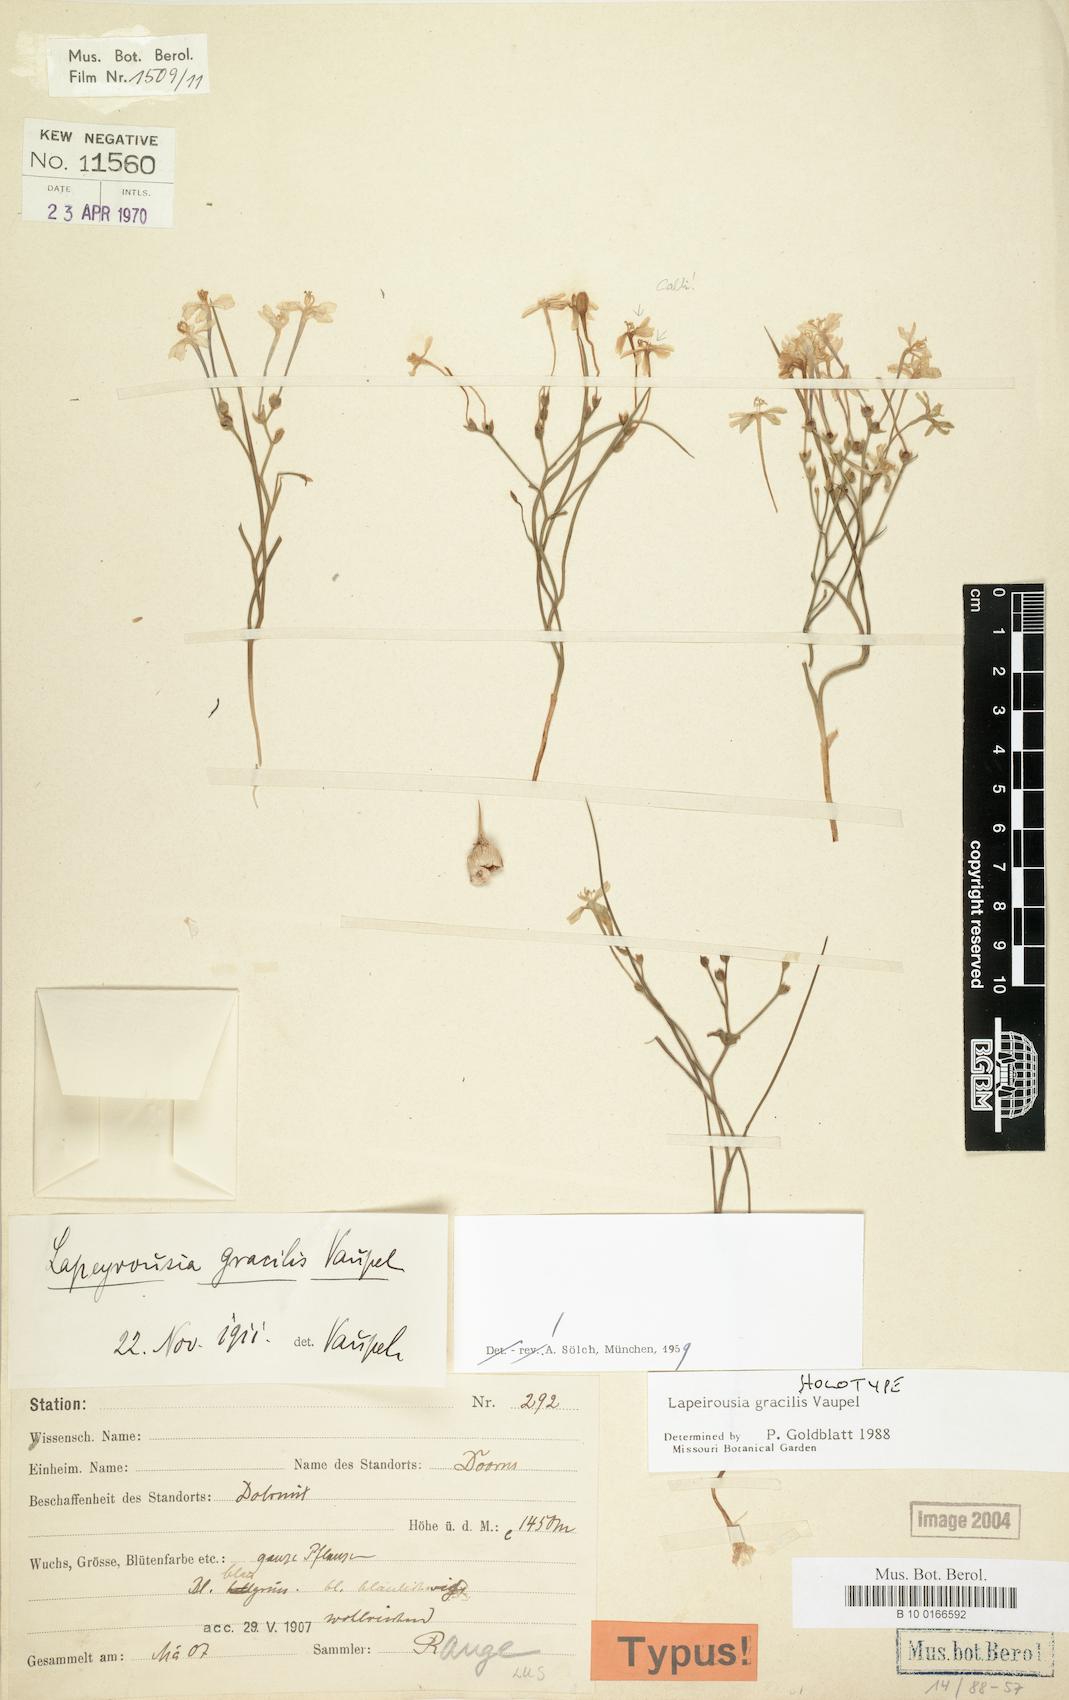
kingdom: Plantae
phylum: Tracheophyta
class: Liliopsida
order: Asparagales
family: Iridaceae
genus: Afrosolen
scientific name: Afrosolen gracilis
